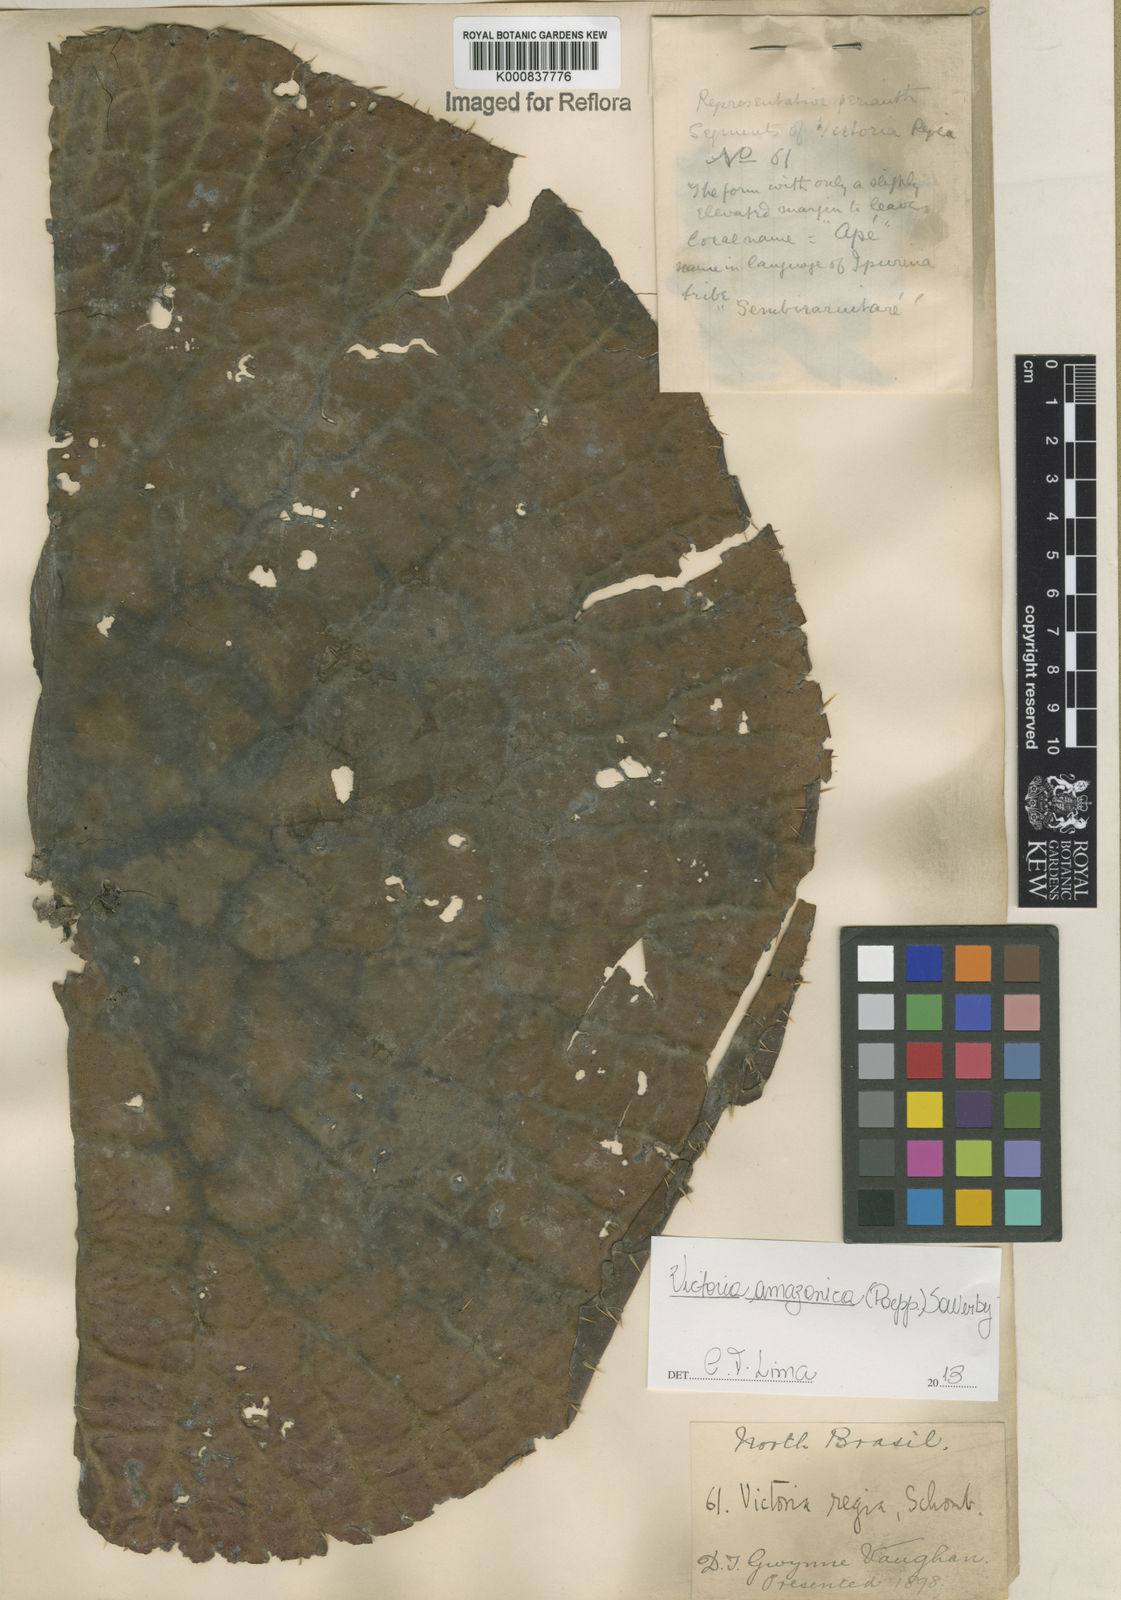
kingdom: Plantae
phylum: Tracheophyta
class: Magnoliopsida
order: Nymphaeales
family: Nymphaeaceae
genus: Victoria
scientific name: Victoria
